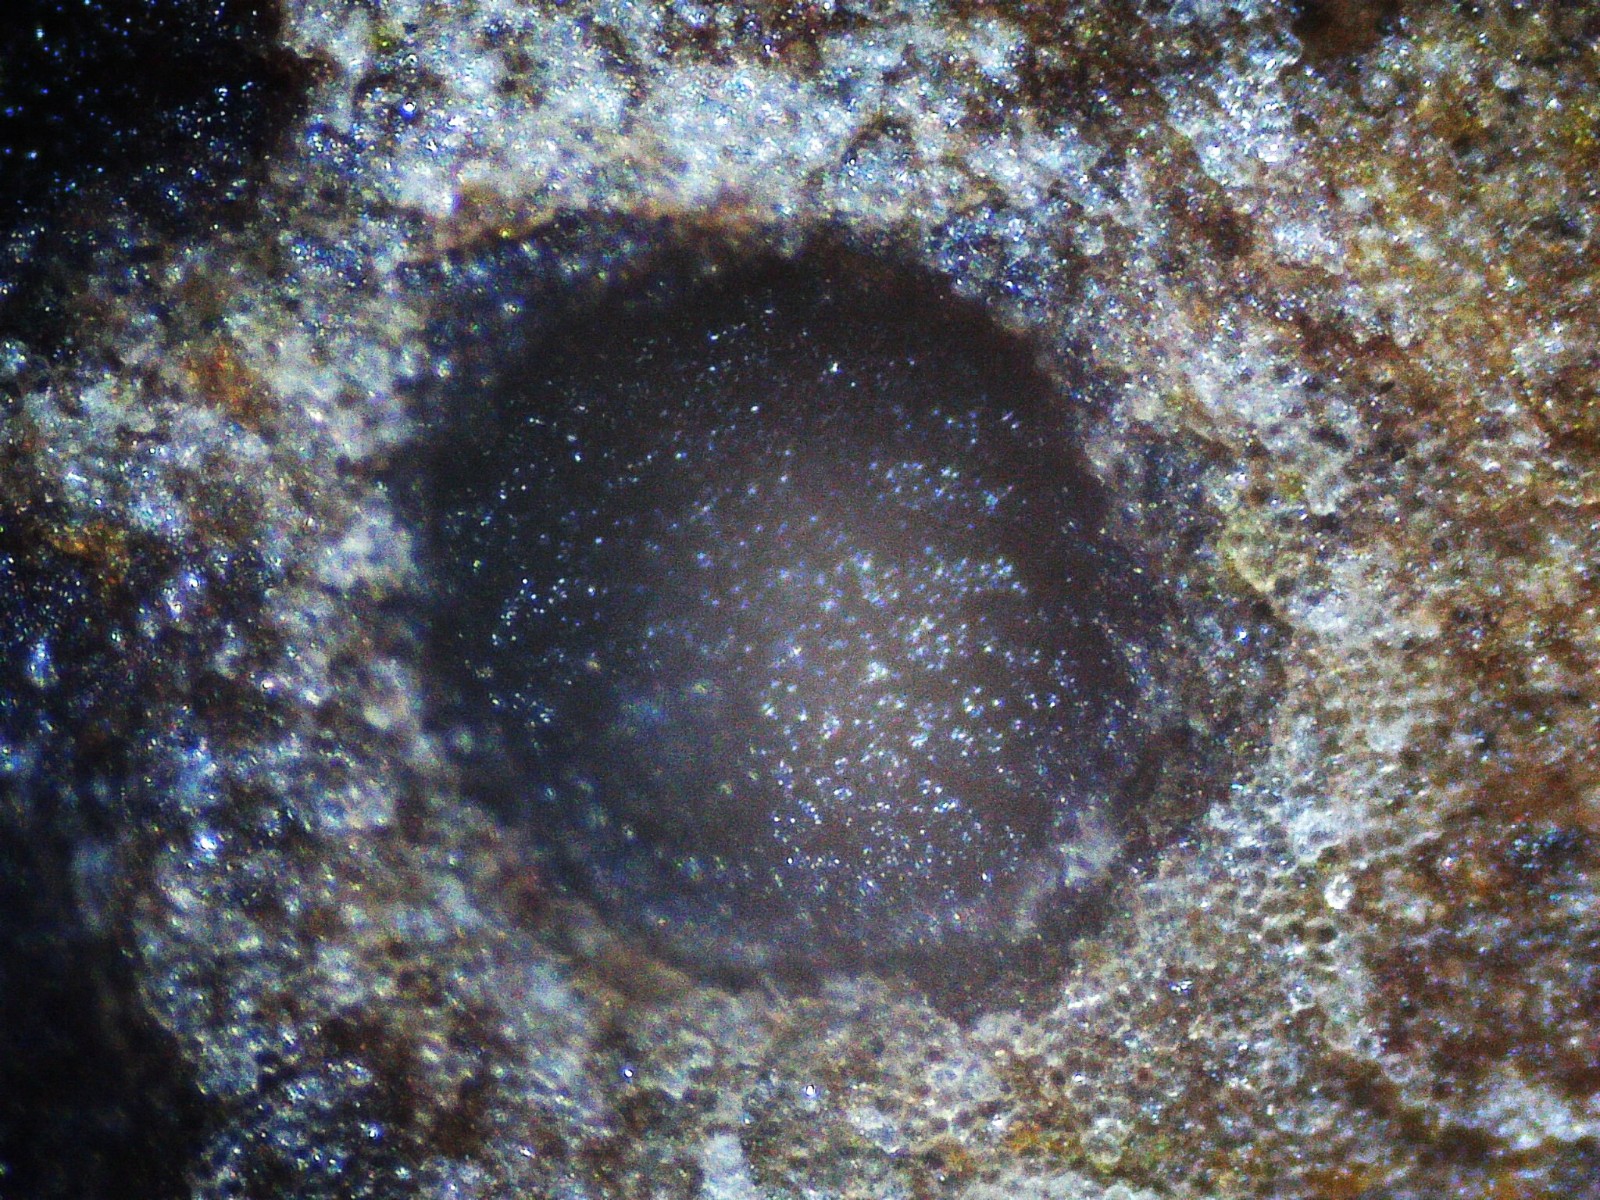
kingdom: Fungi
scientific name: Fungi
